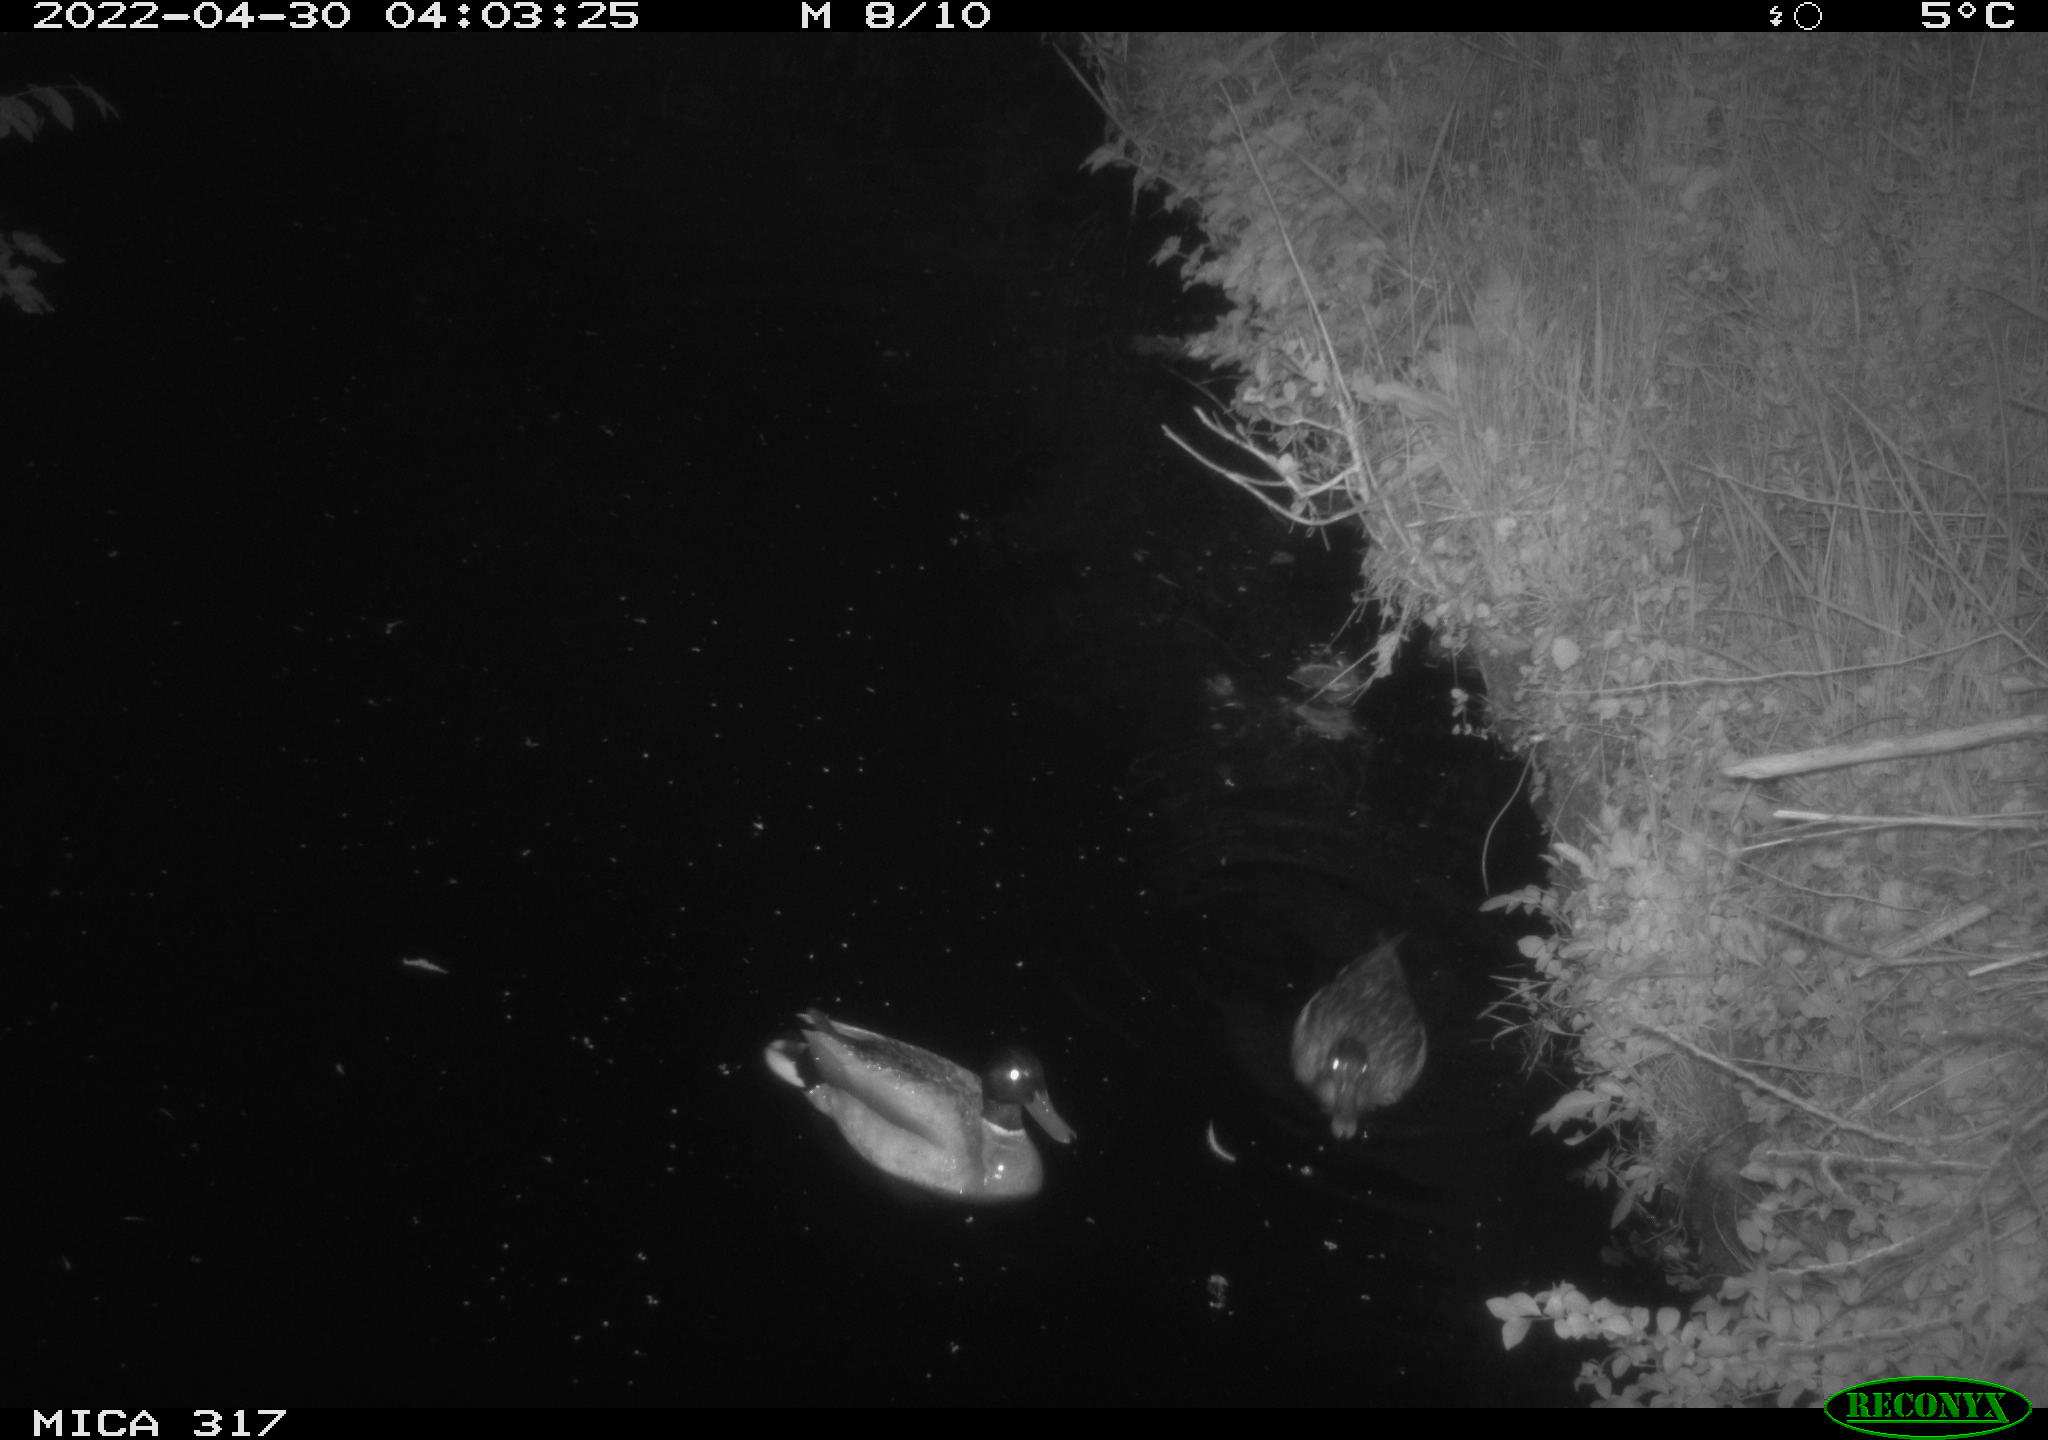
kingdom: Animalia
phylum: Chordata
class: Aves
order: Anseriformes
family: Anatidae
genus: Anas
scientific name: Anas platyrhynchos
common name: Mallard
